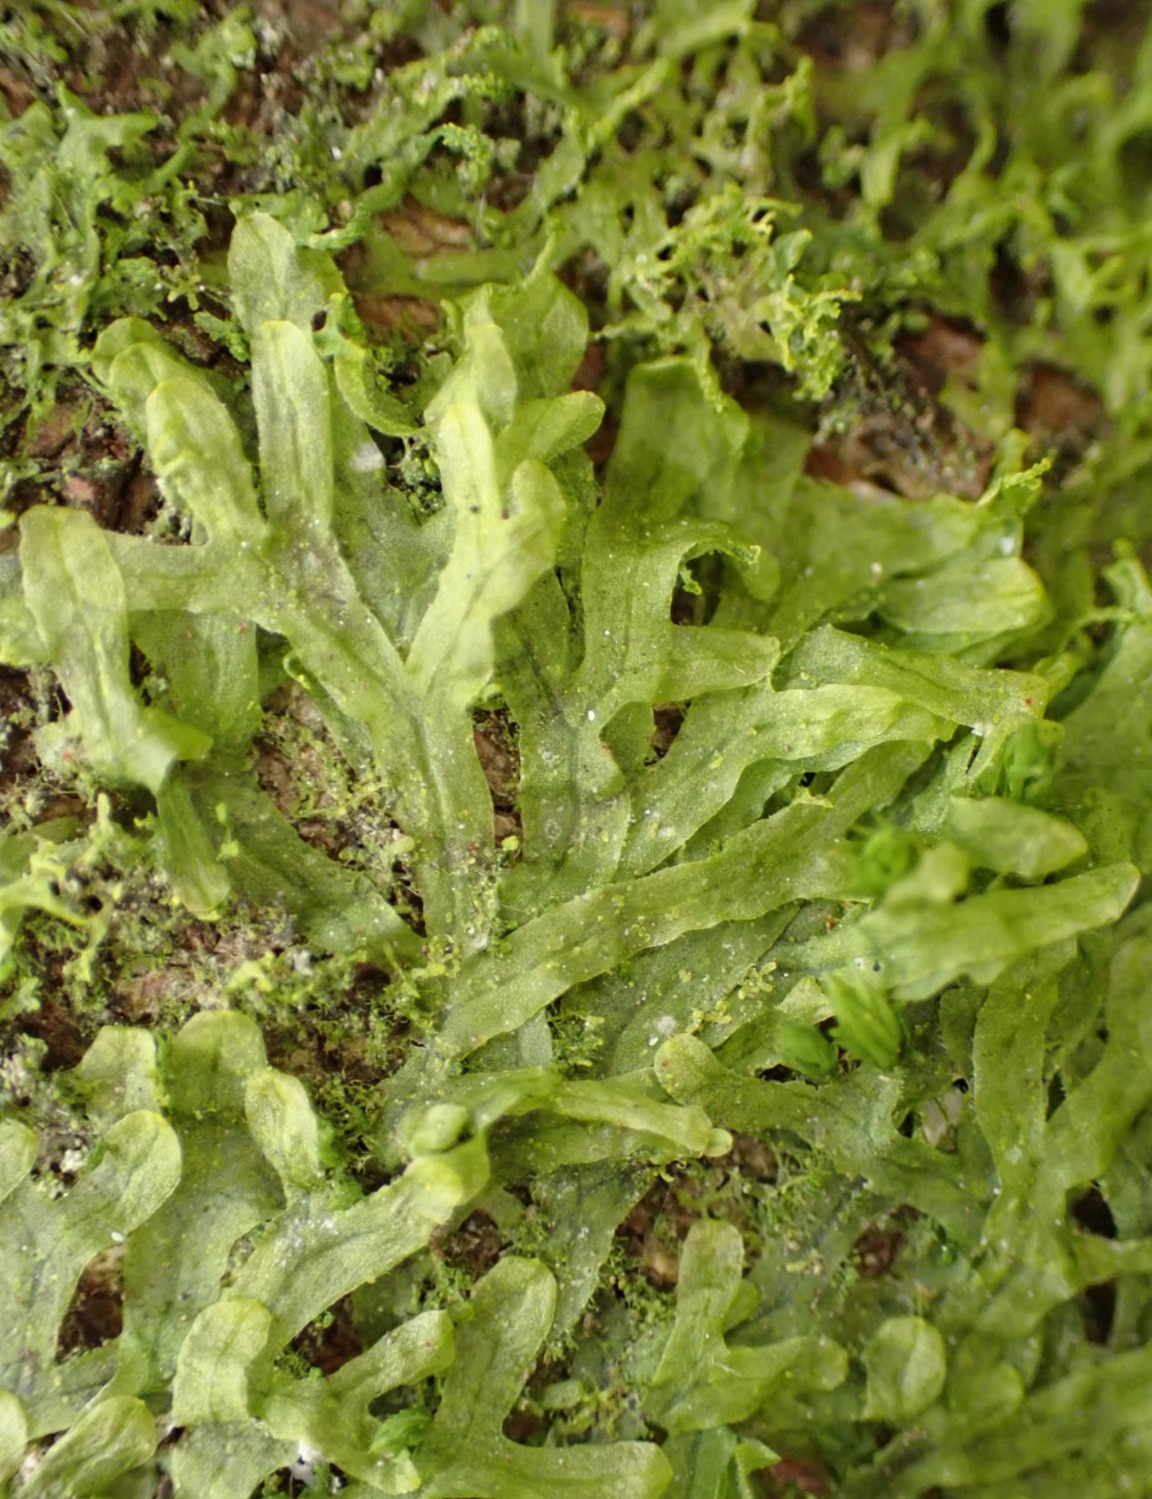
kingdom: Plantae
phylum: Marchantiophyta
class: Jungermanniopsida
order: Metzgeriales
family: Metzgeriaceae
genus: Metzgeria
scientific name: Metzgeria furcata
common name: Almindelig gaffelløv
